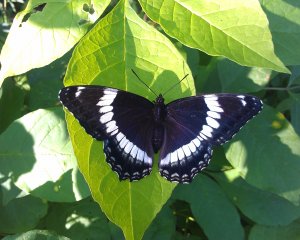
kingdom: Animalia
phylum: Arthropoda
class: Insecta
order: Lepidoptera
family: Nymphalidae
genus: Limenitis
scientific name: Limenitis arthemis
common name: Red-spotted Admiral
